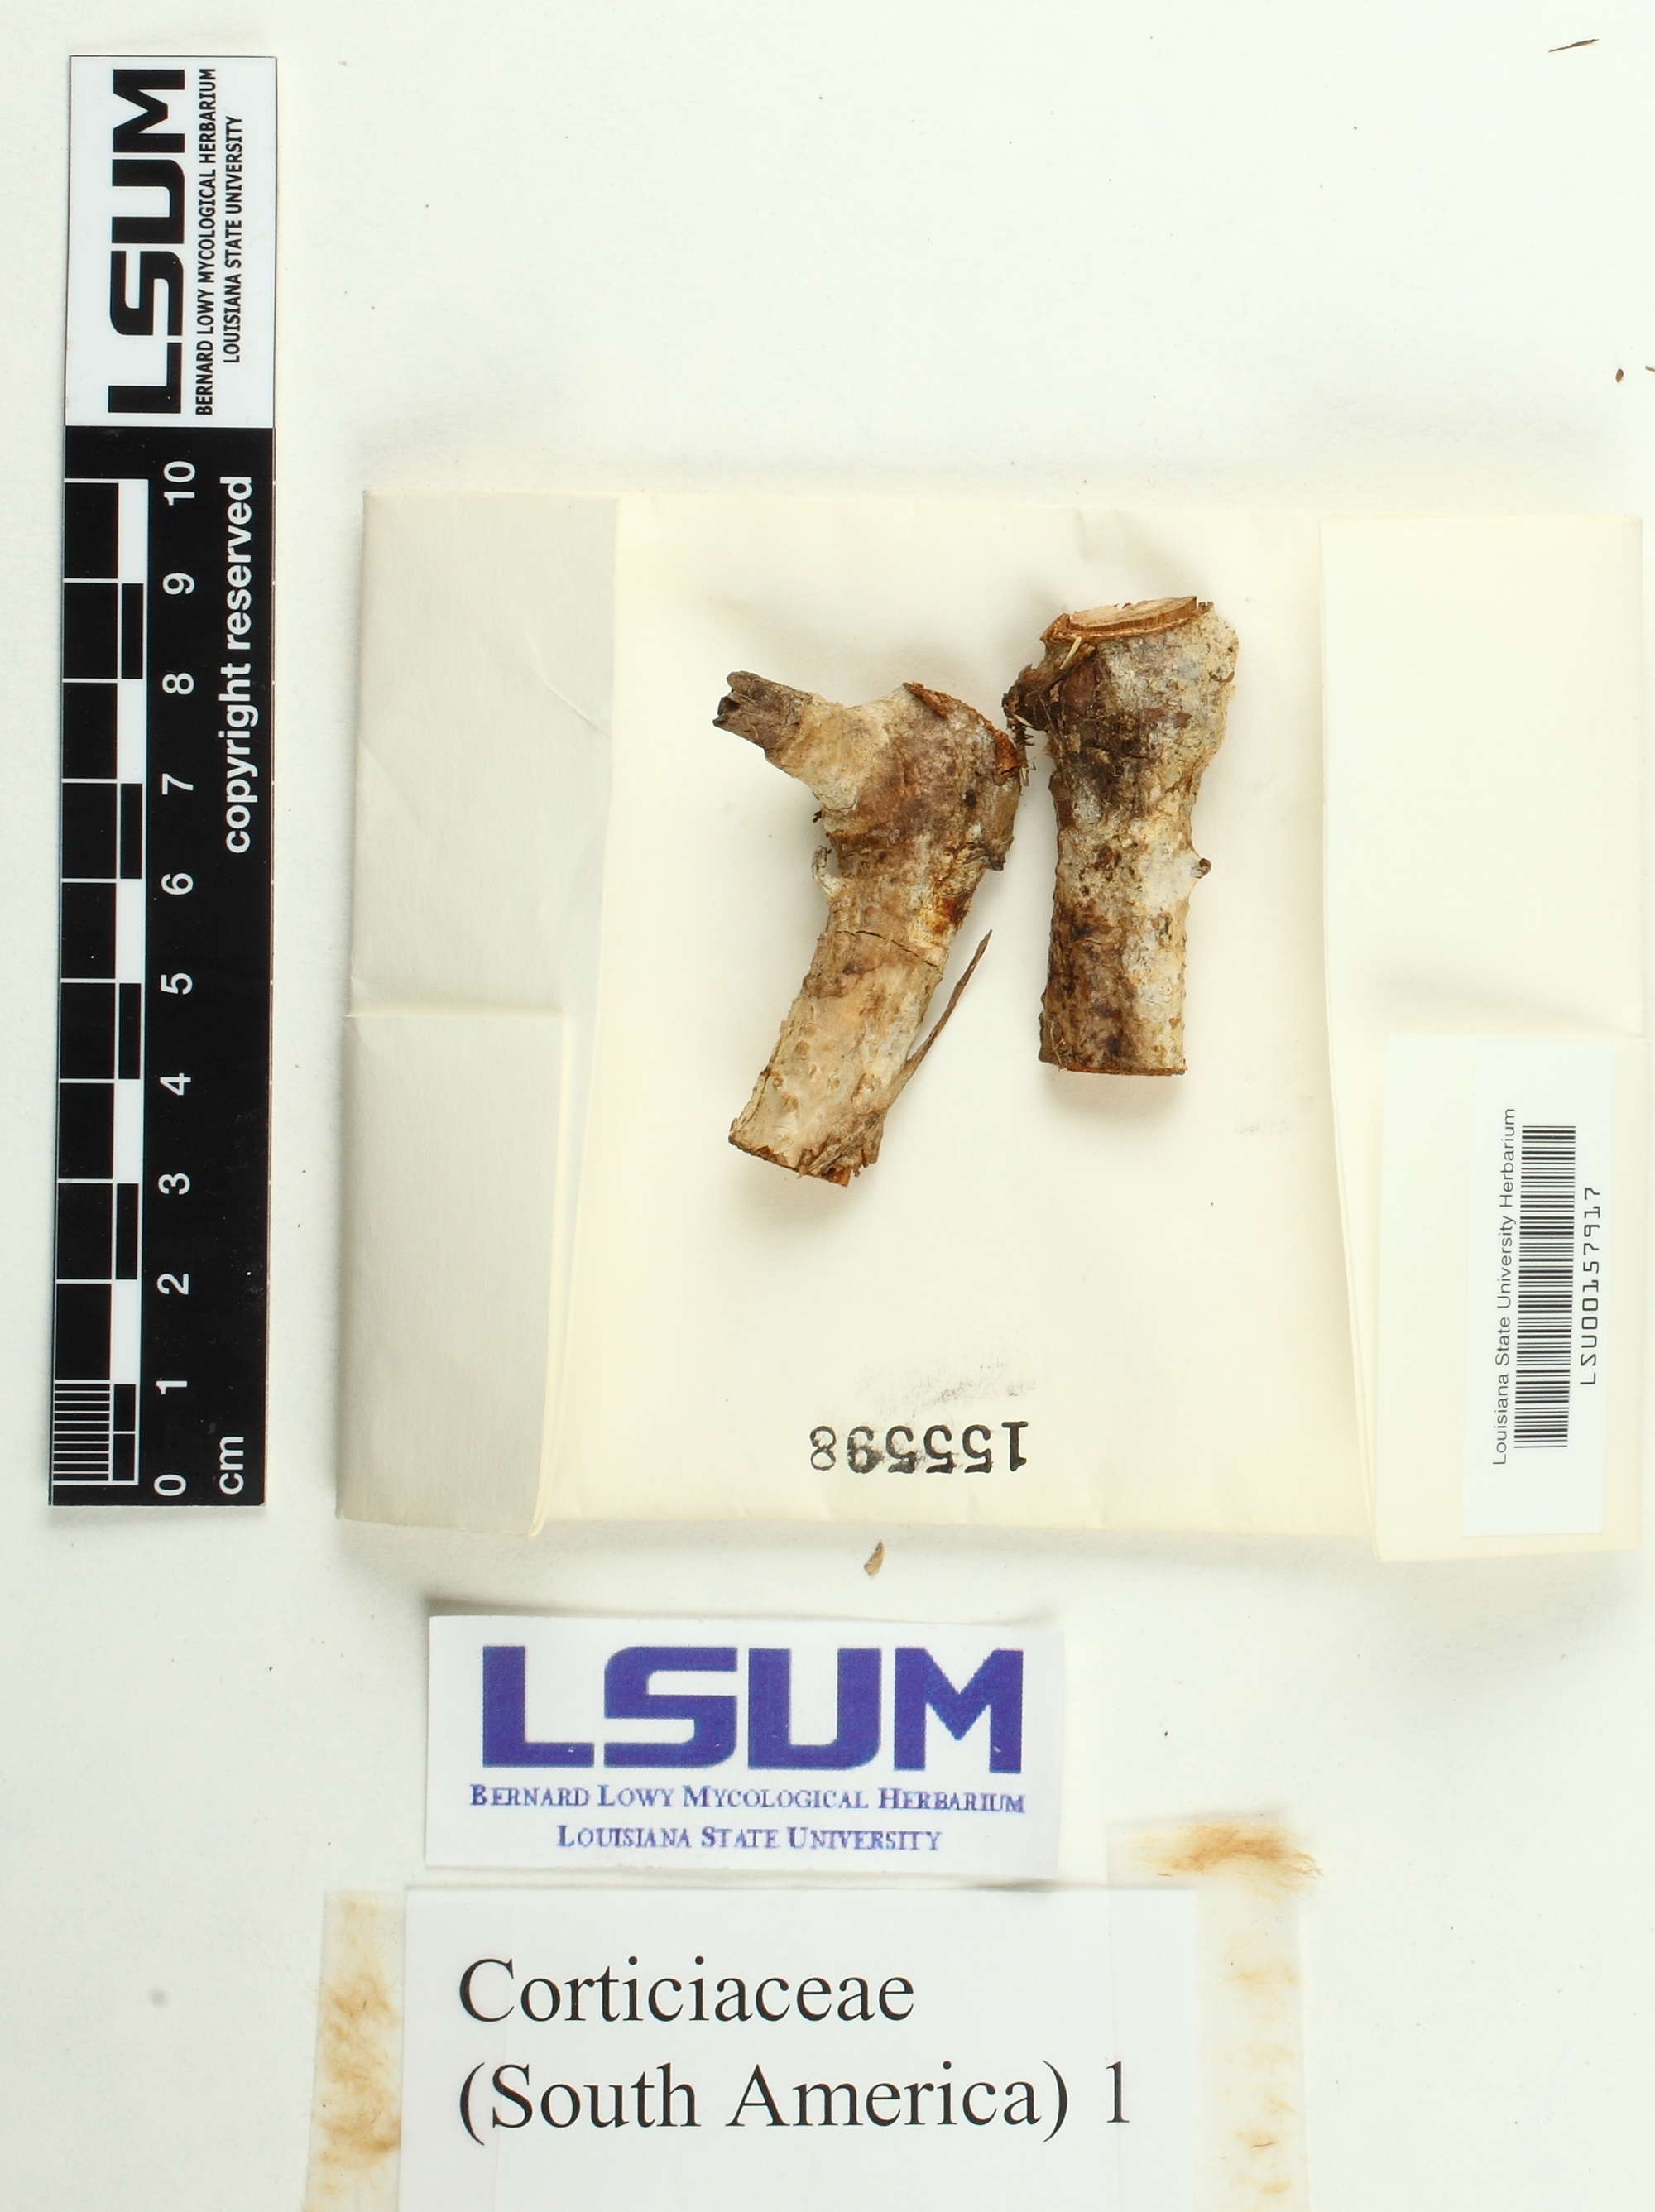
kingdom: Fungi
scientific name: Fungi
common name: Fungi
